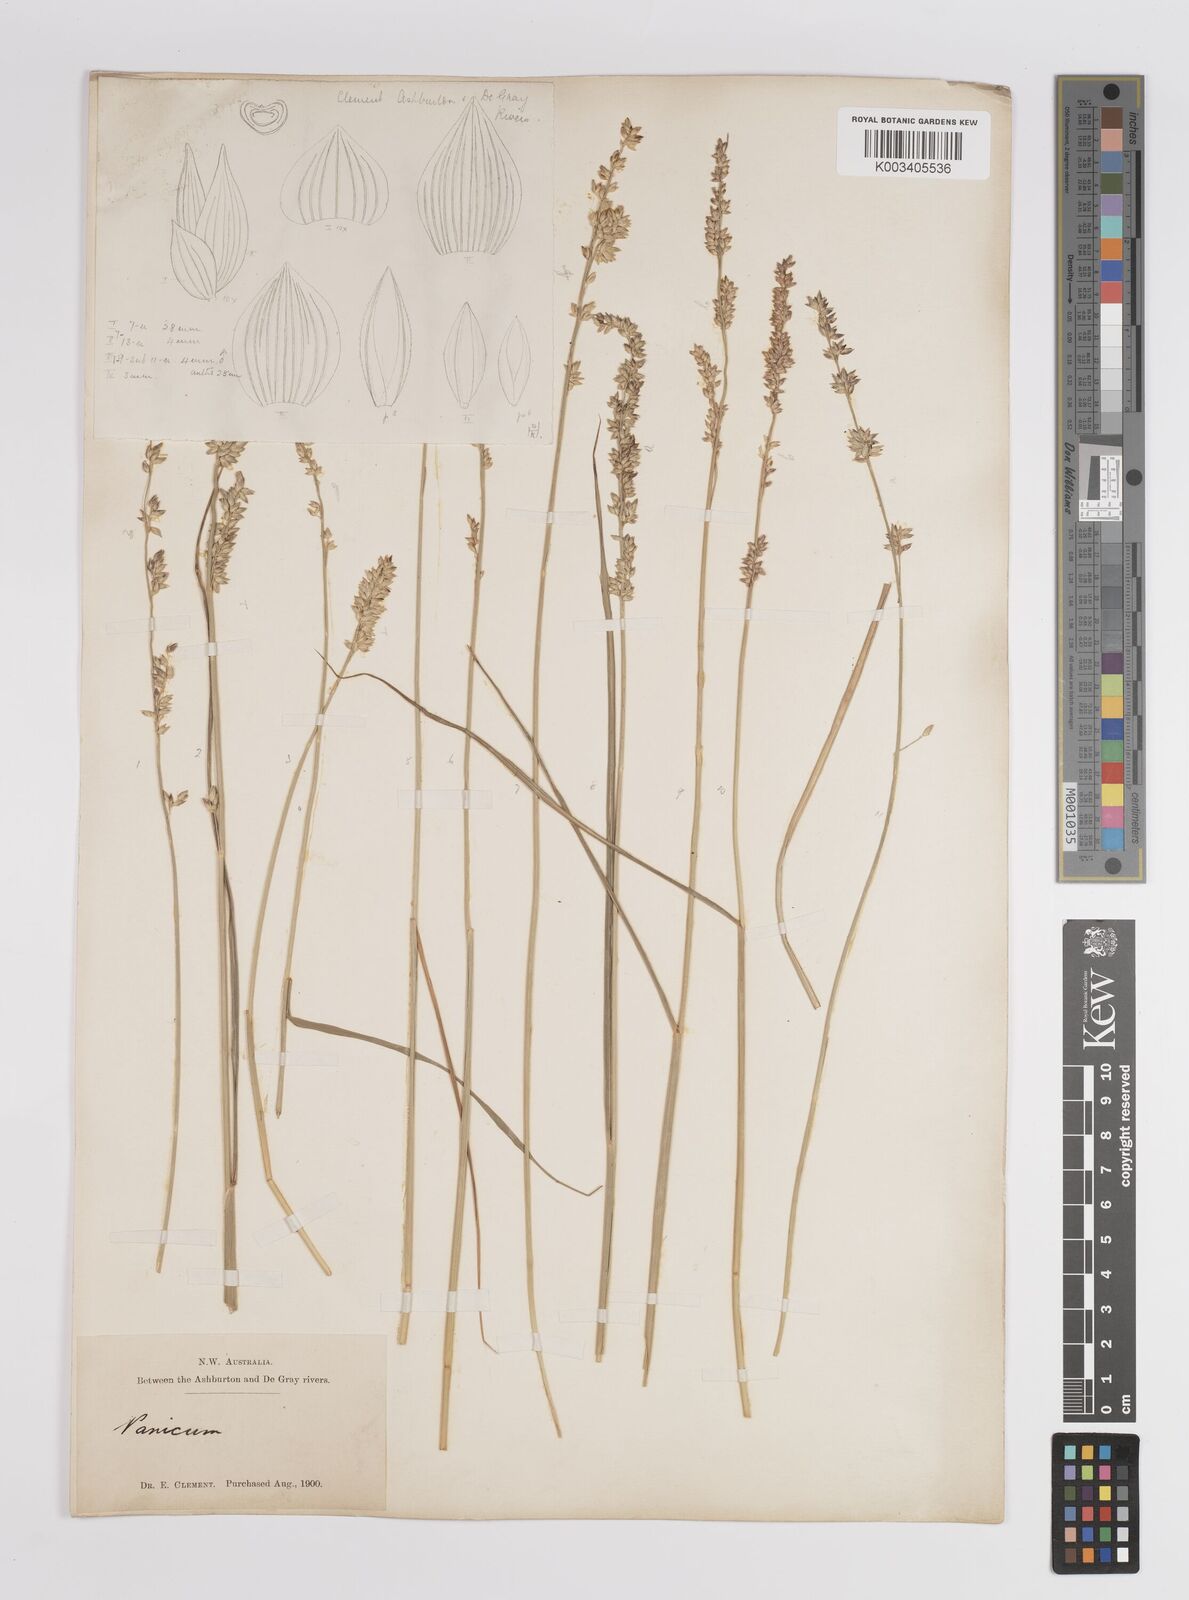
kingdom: Plantae
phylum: Tracheophyta
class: Liliopsida
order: Poales
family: Poaceae
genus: Panicum
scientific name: Panicum
